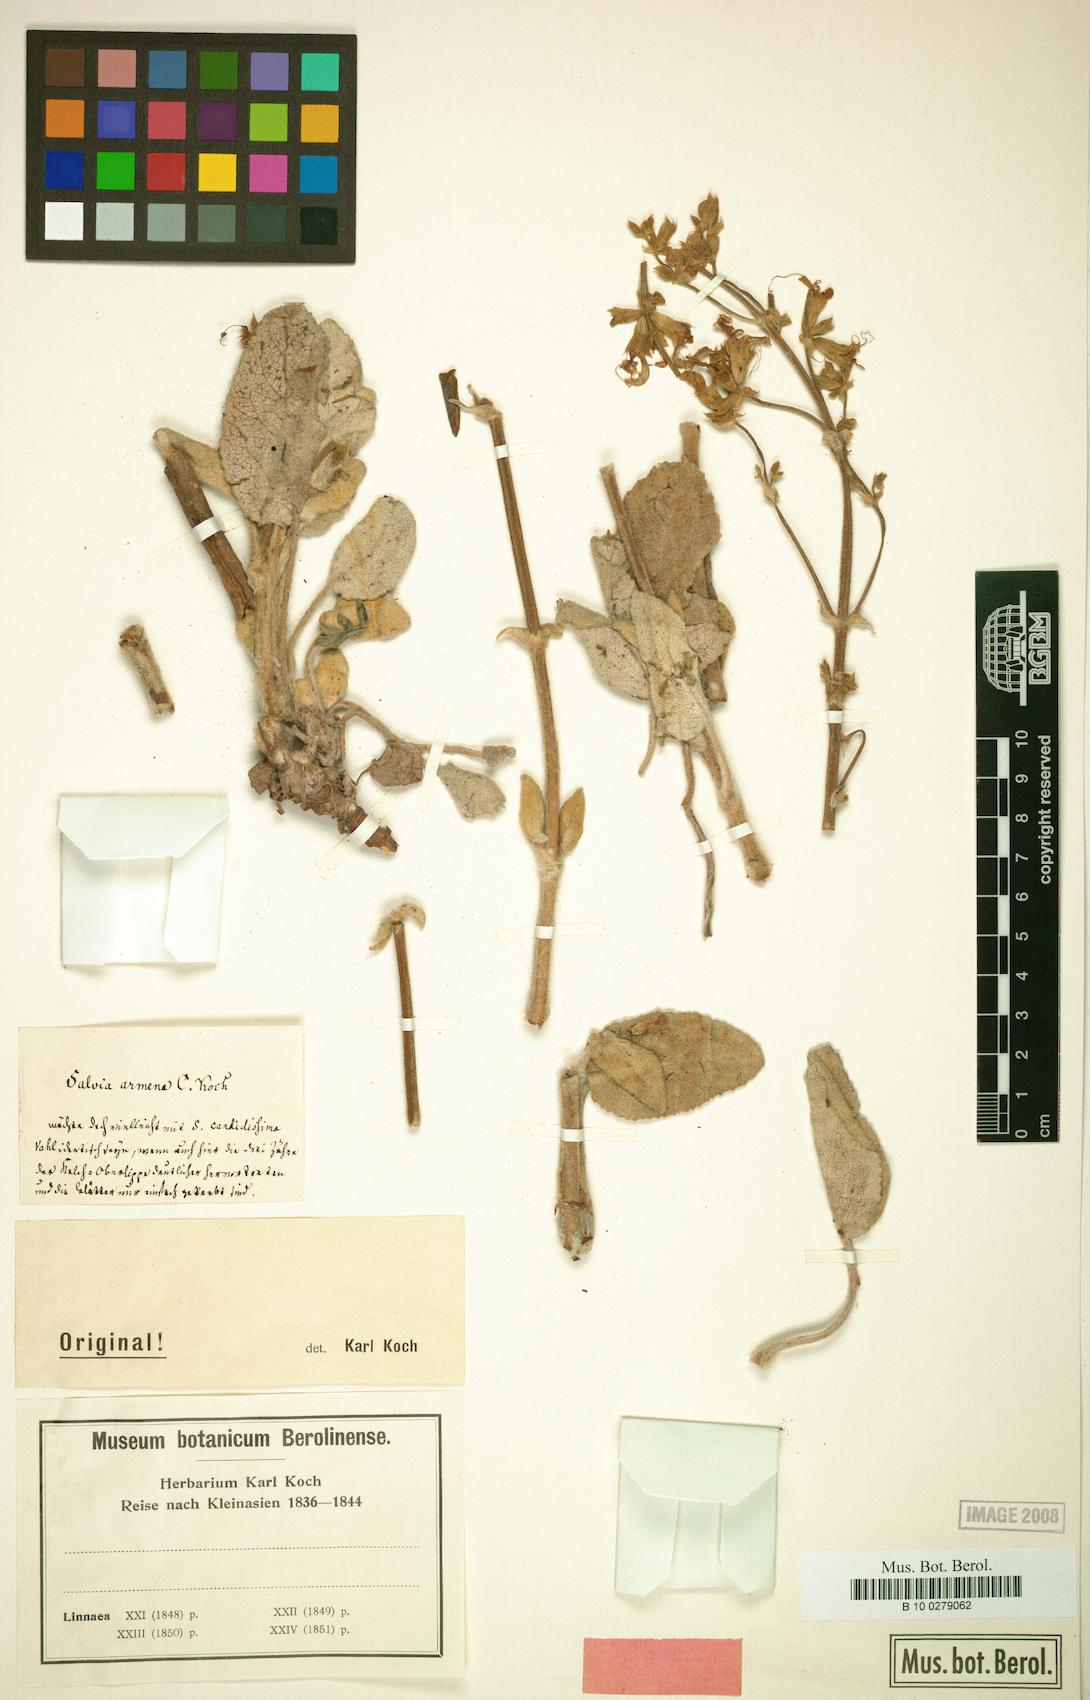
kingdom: Plantae
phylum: Tracheophyta
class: Magnoliopsida
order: Lamiales
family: Lamiaceae
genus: Salvia
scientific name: Salvia candidissima
